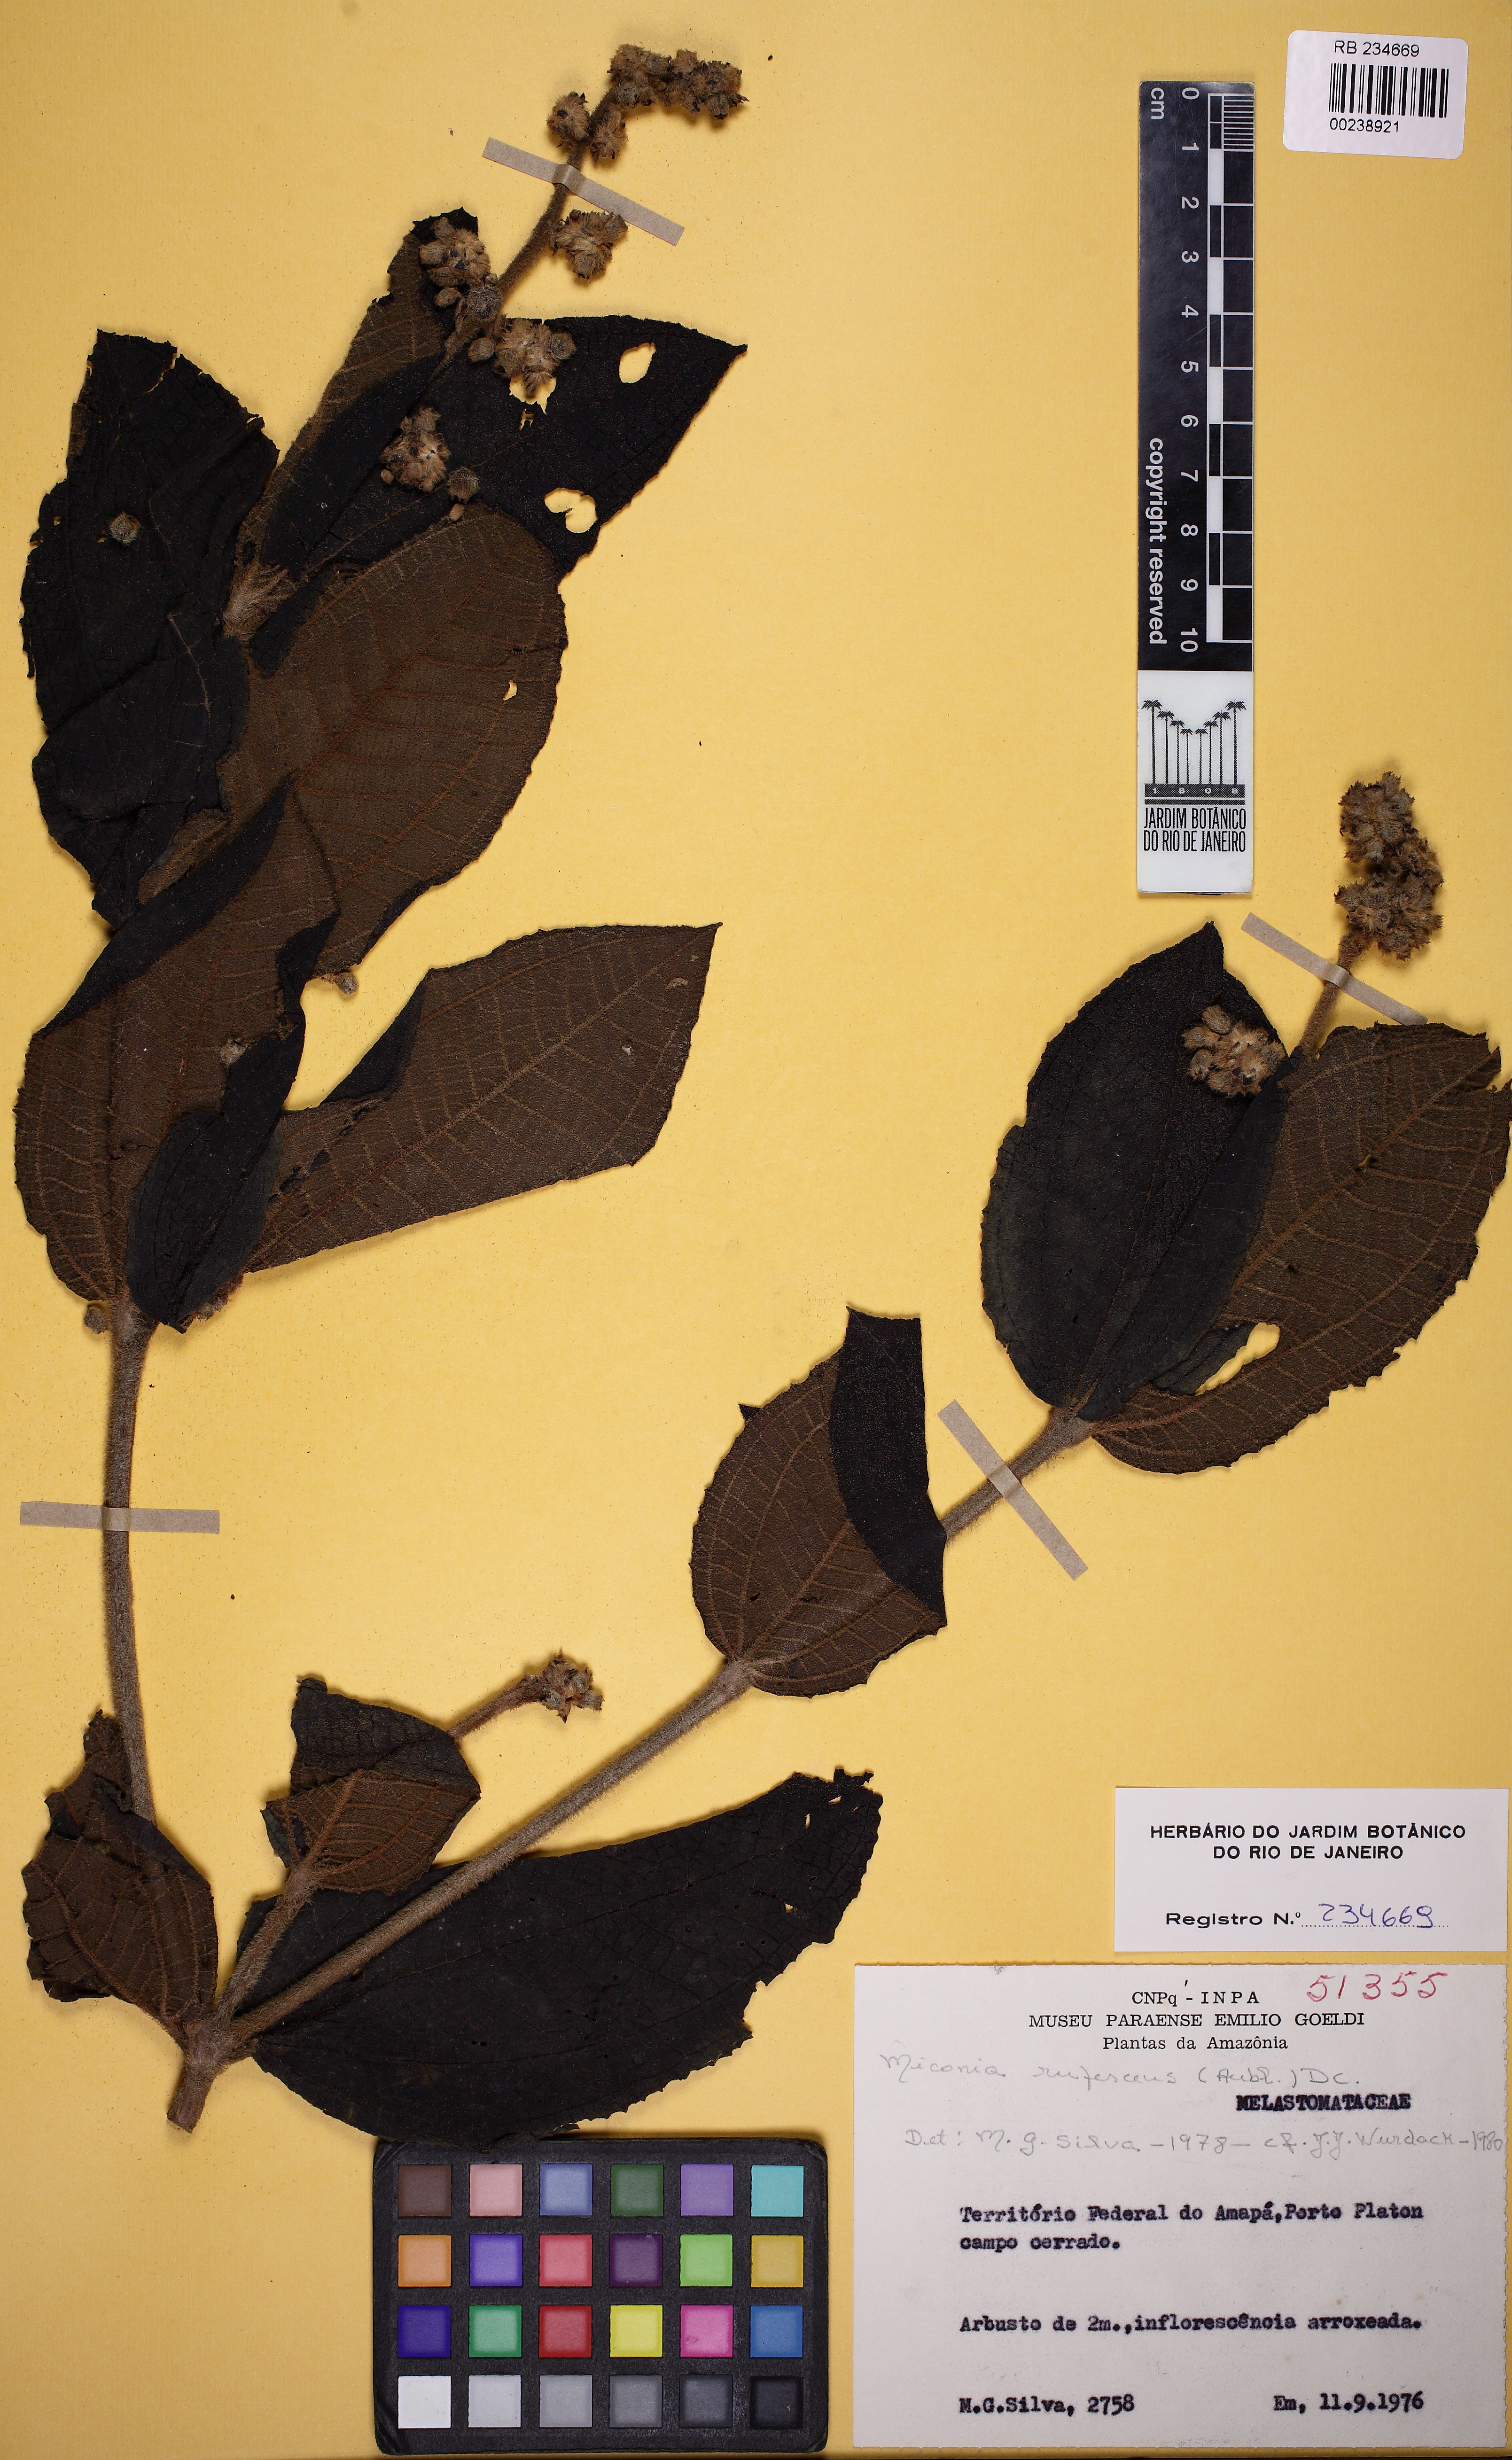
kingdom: Plantae
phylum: Tracheophyta
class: Magnoliopsida
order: Myrtales
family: Melastomataceae
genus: Miconia
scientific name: Miconia rufescens
